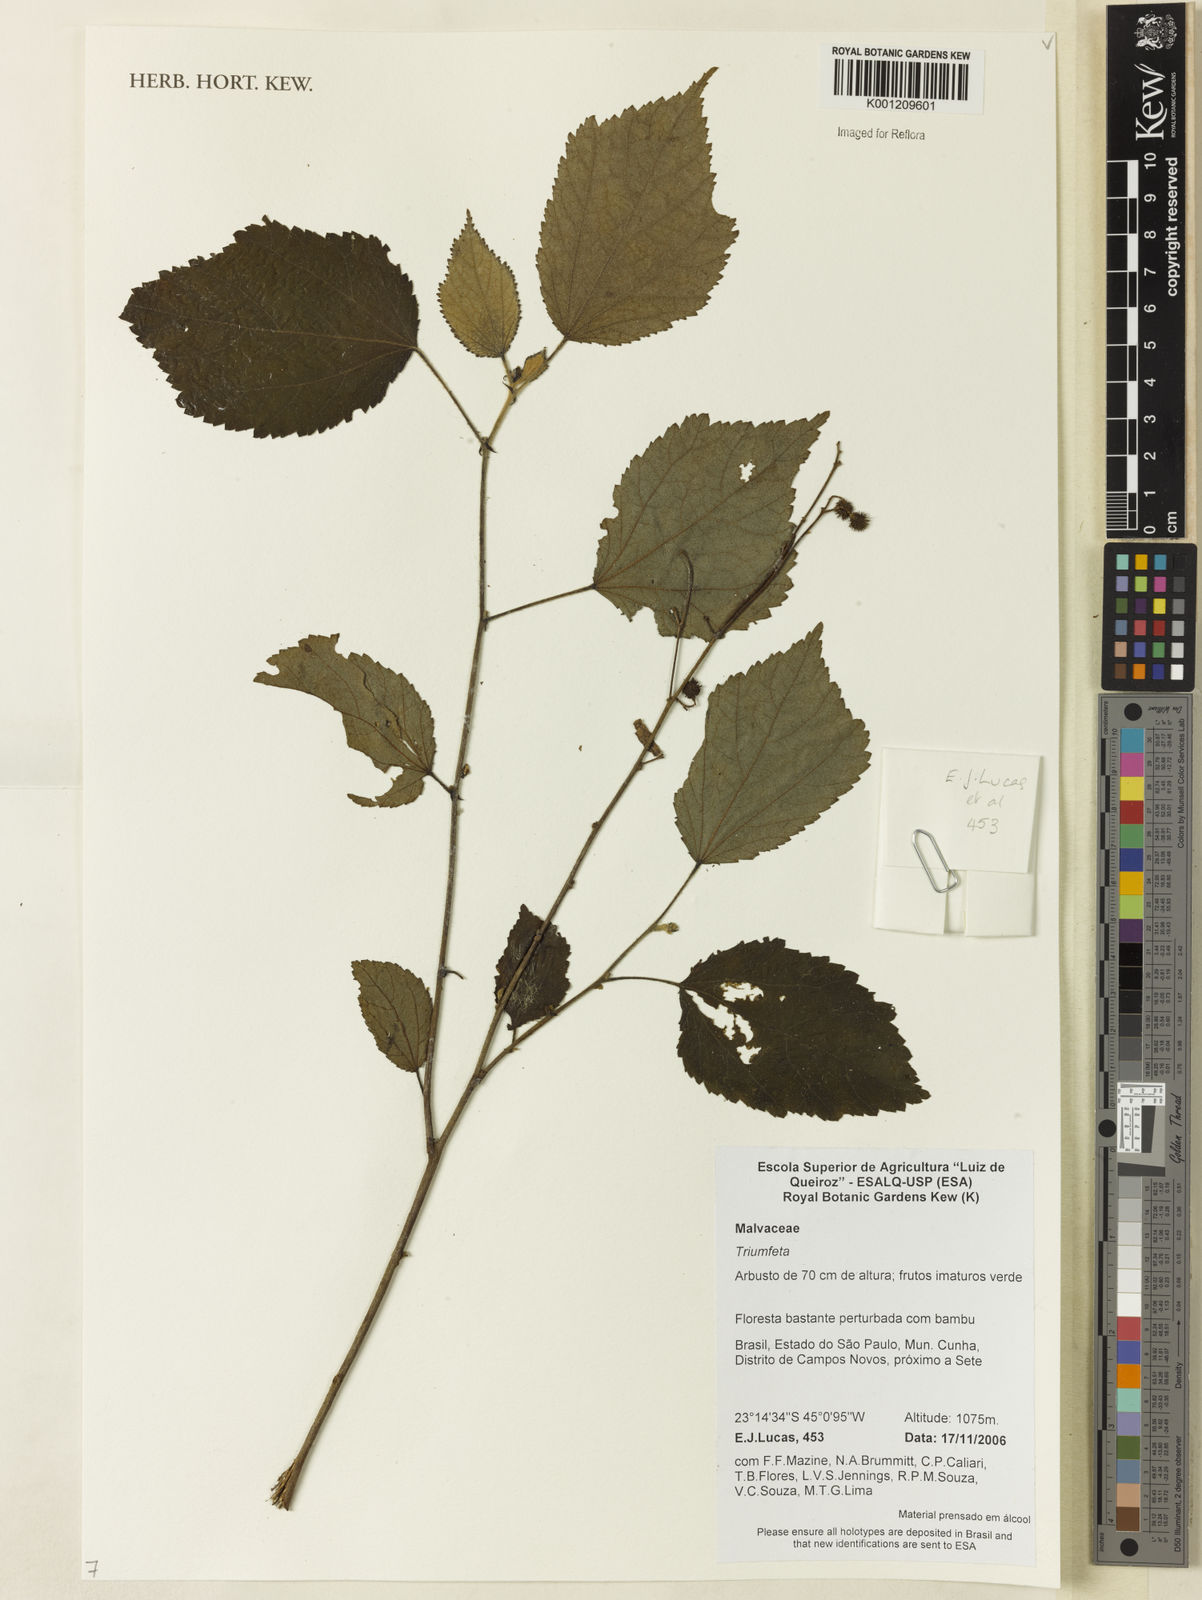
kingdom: Plantae
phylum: Tracheophyta
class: Magnoliopsida
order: Malvales
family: Malvaceae
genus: Triumfetta
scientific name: Triumfetta
